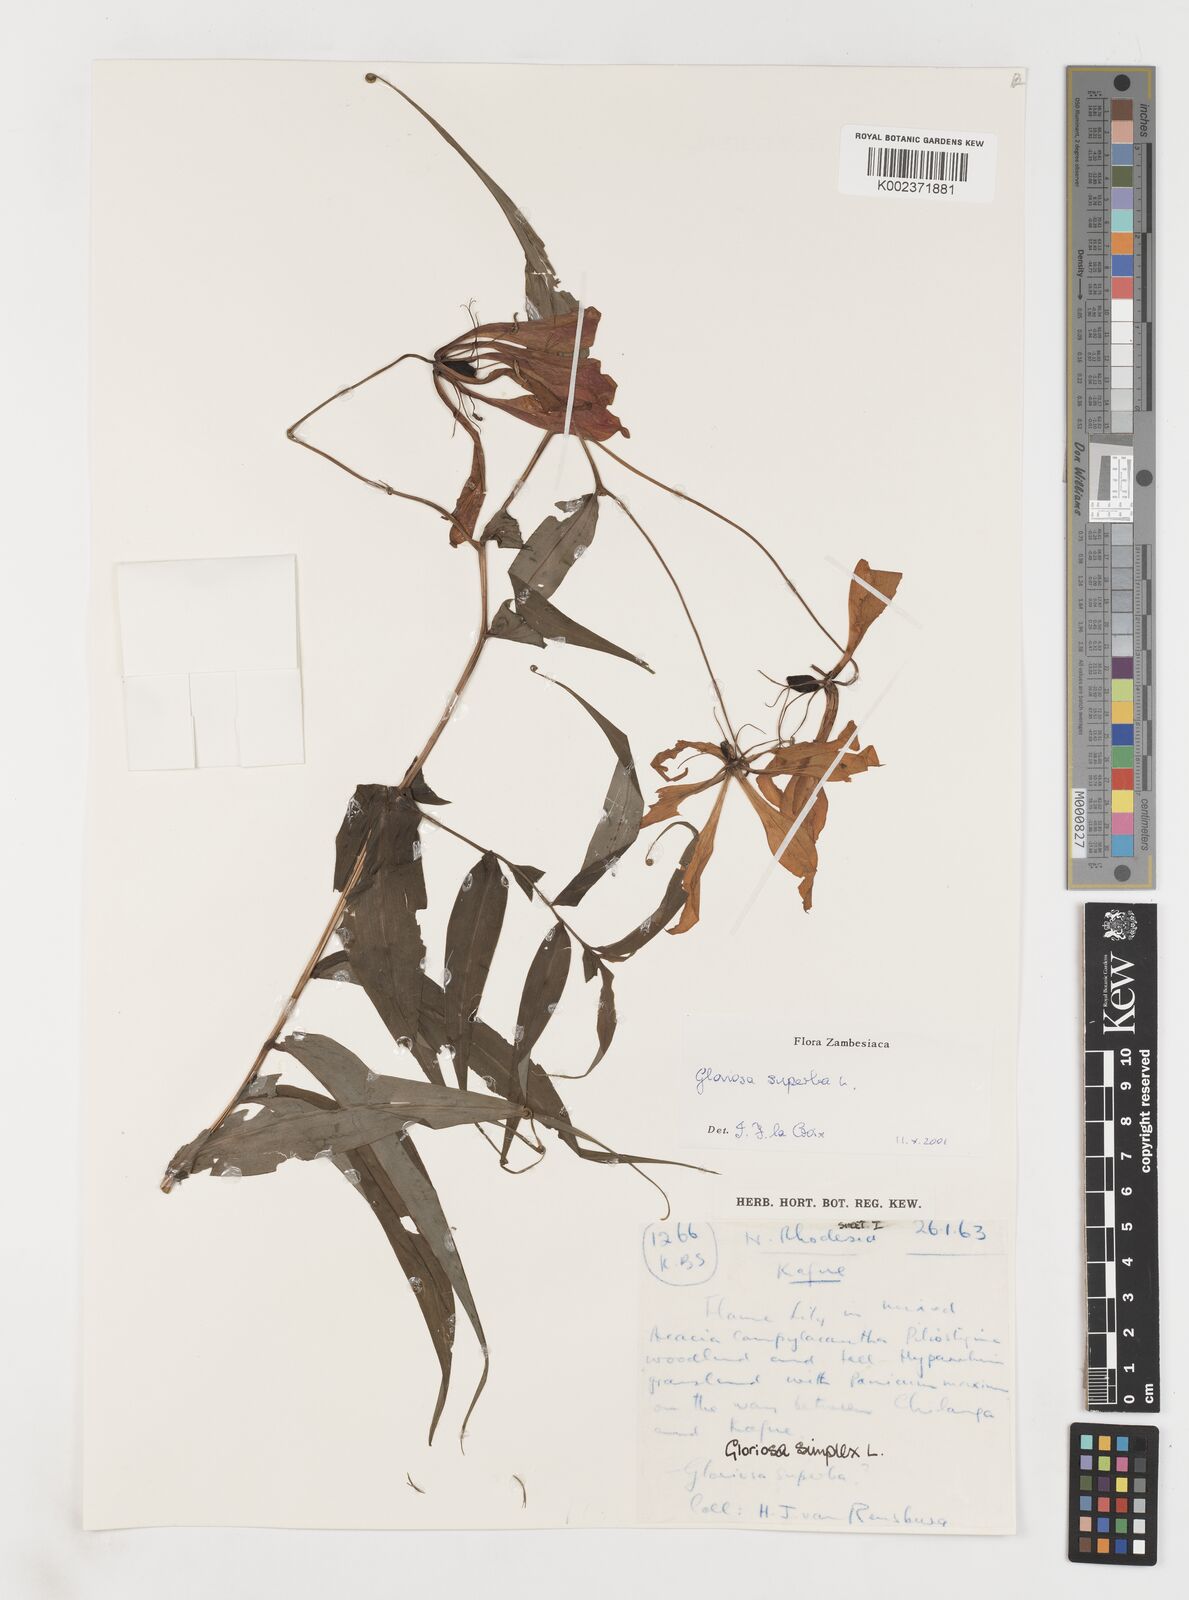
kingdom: Plantae
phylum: Tracheophyta
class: Liliopsida
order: Liliales
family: Colchicaceae
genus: Gloriosa
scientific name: Gloriosa simplex
